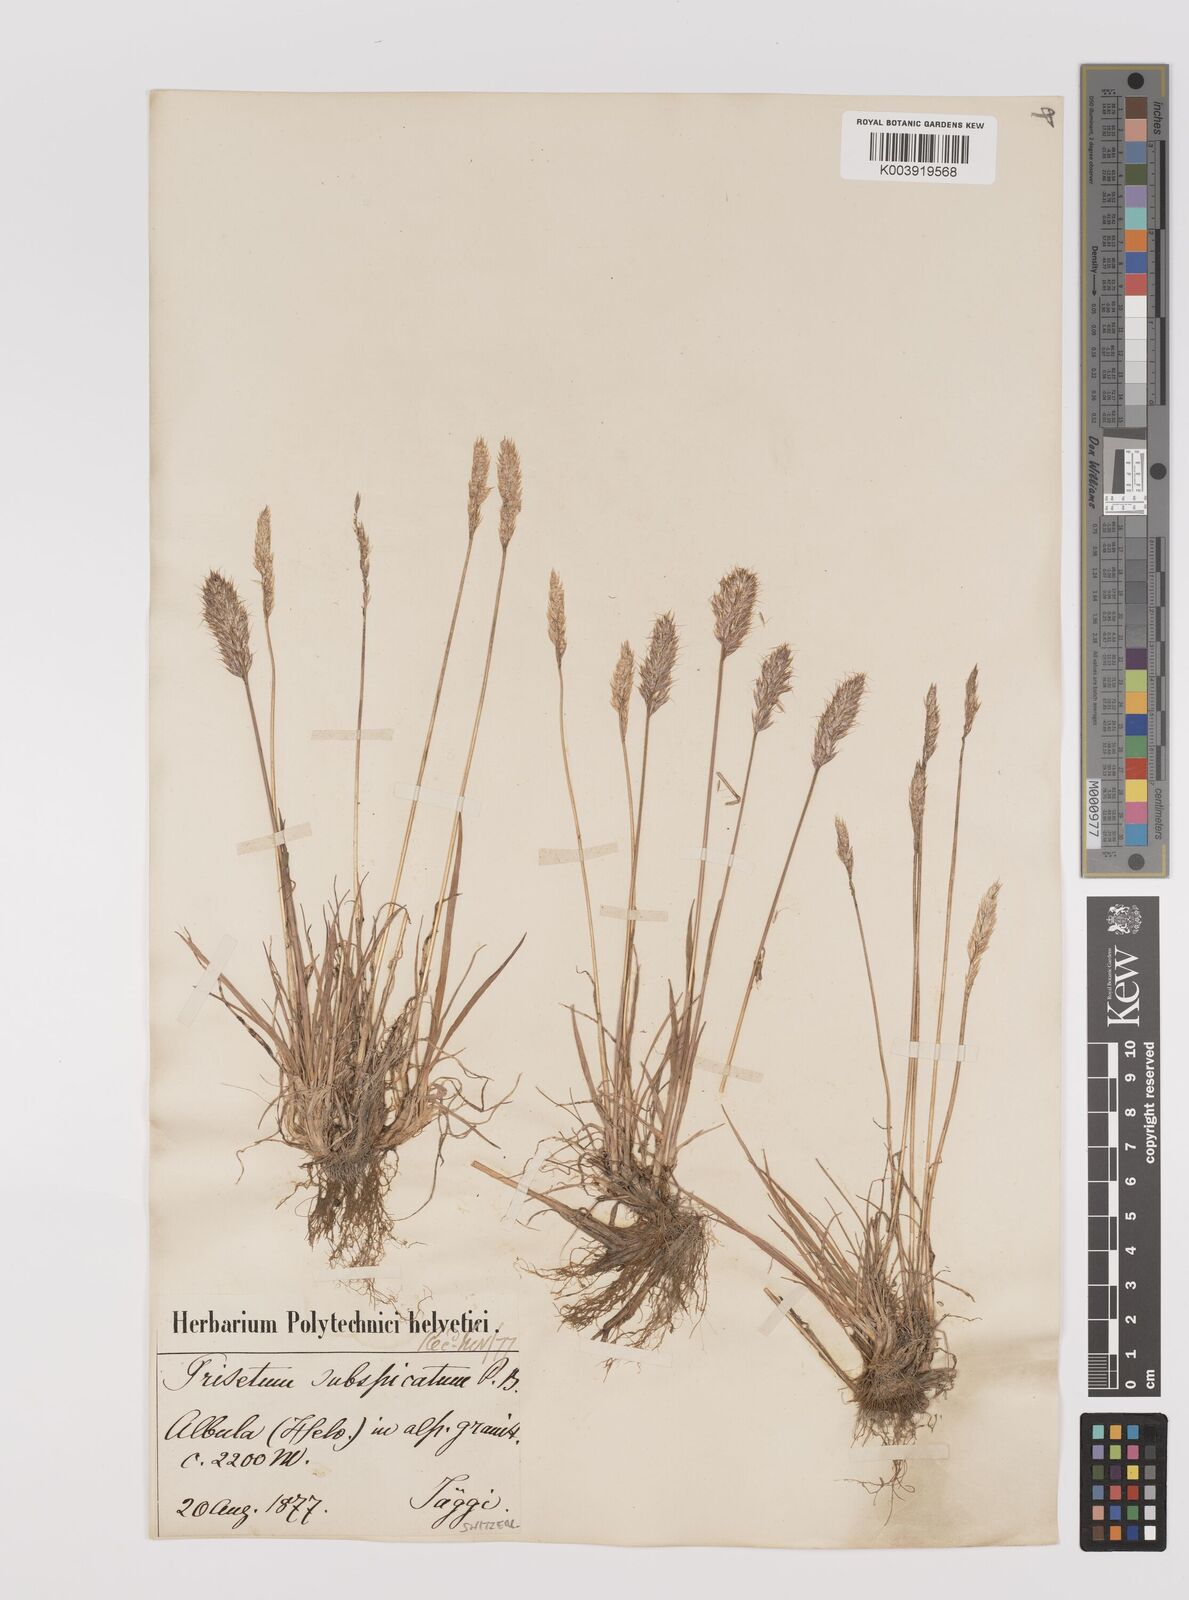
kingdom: Plantae
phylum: Tracheophyta
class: Liliopsida
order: Poales
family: Poaceae
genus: Koeleria
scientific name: Koeleria spicata
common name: Mountain trisetum
